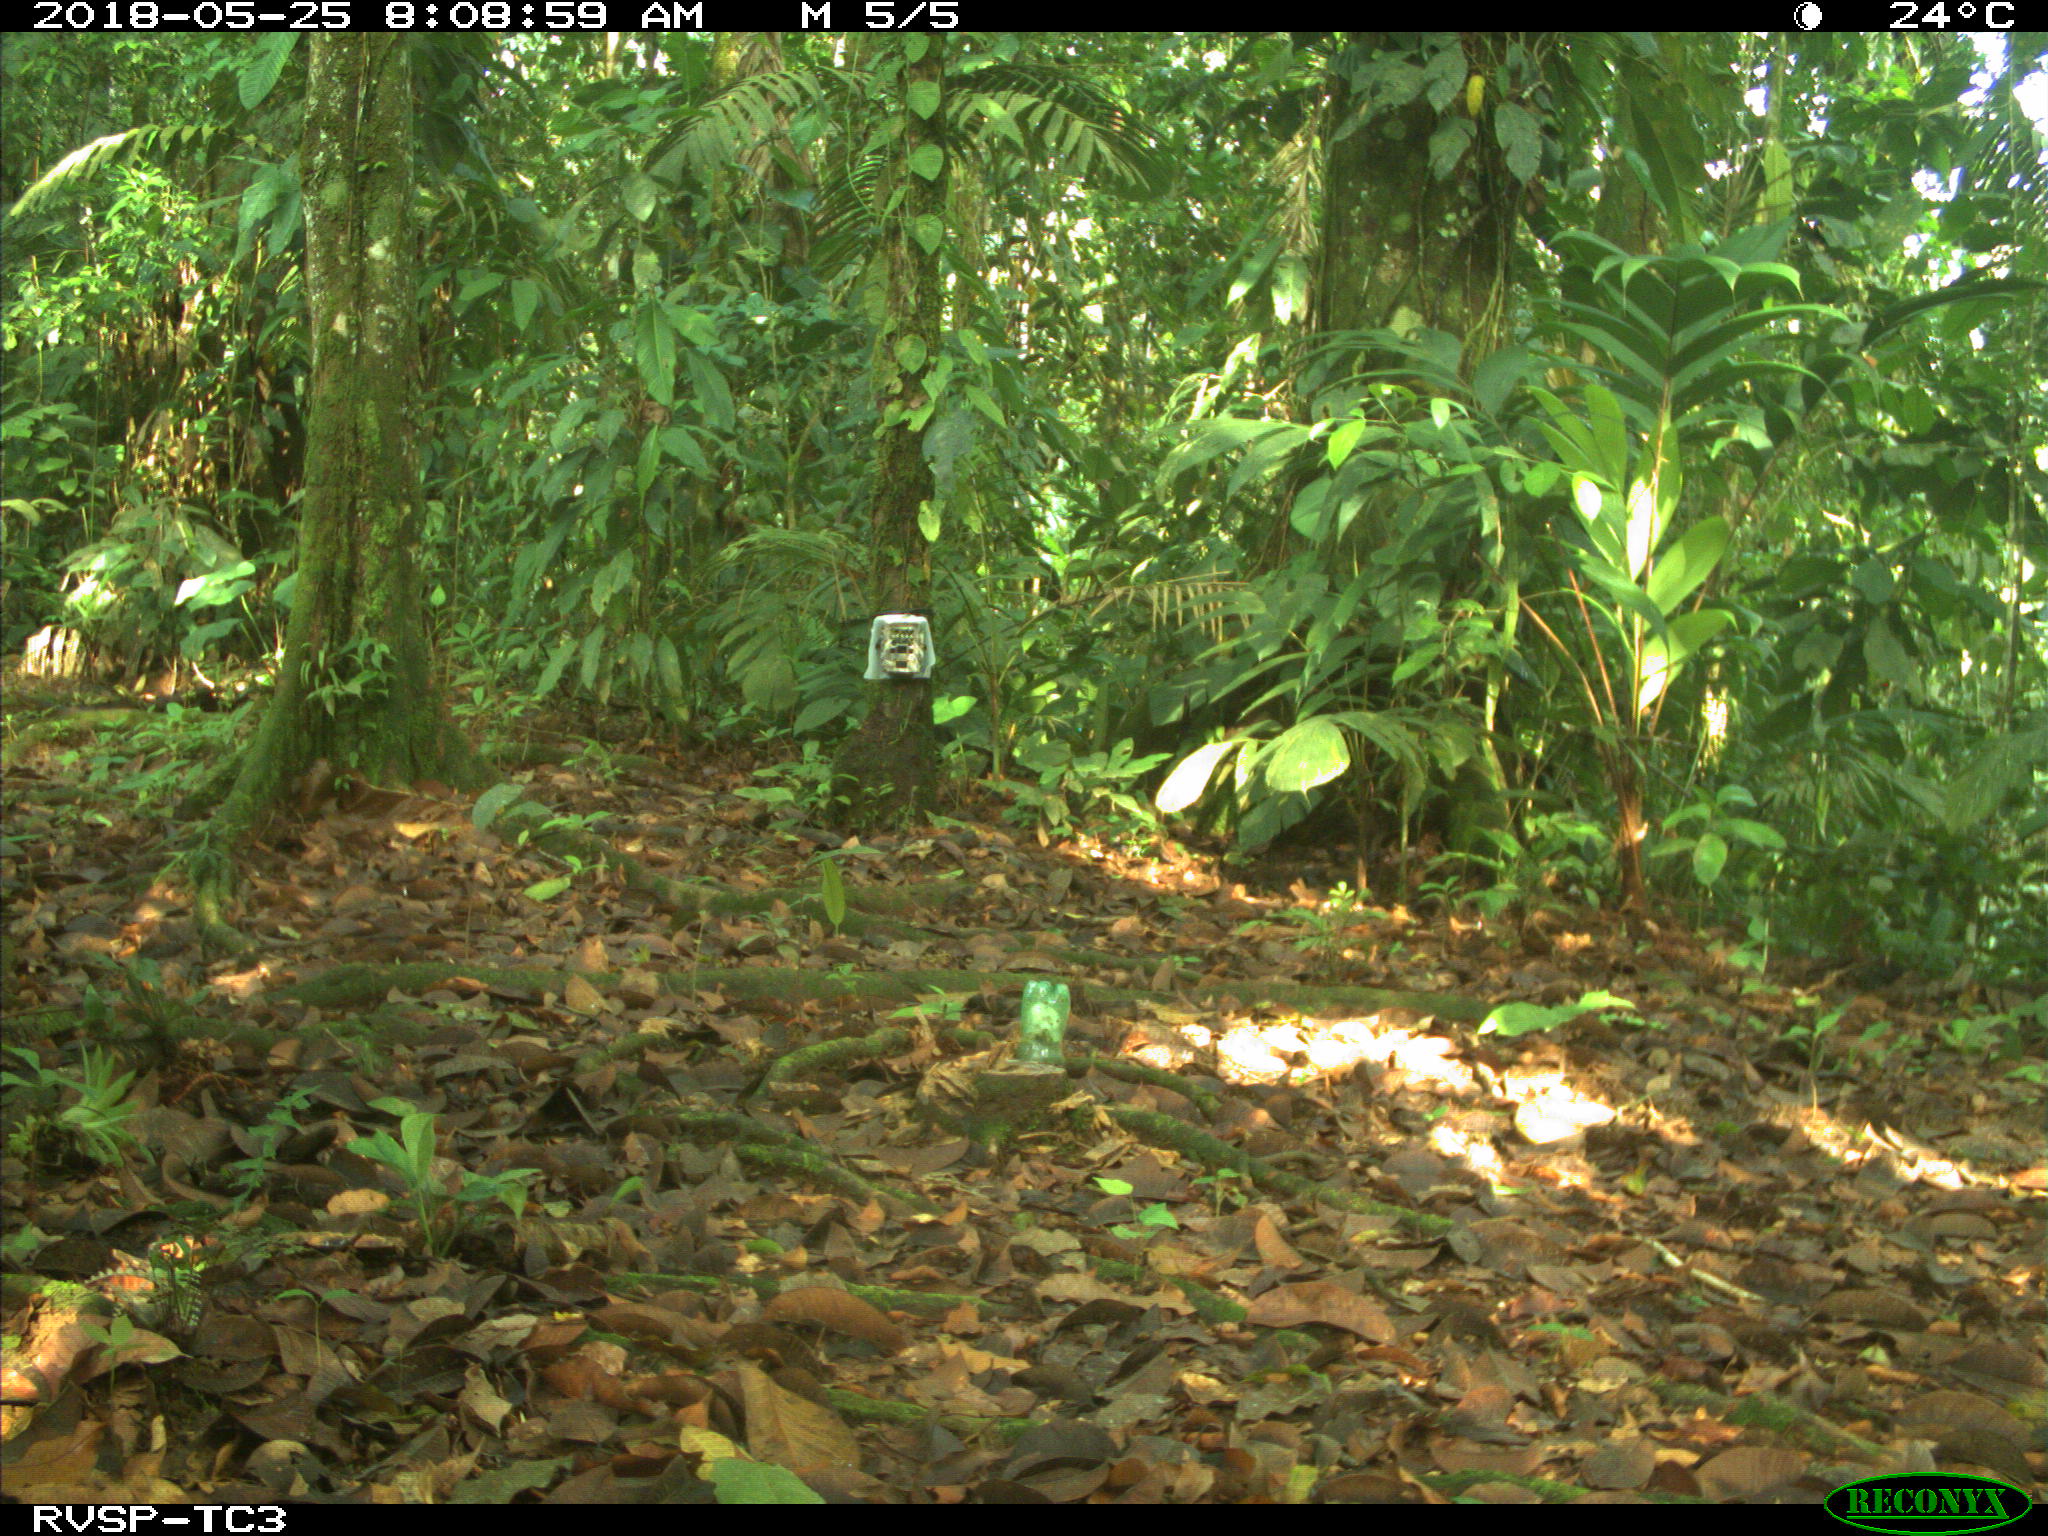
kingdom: Animalia
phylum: Chordata
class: Mammalia
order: Rodentia
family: Dasyproctidae
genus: Dasyprocta
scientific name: Dasyprocta punctata
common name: Central american agouti
